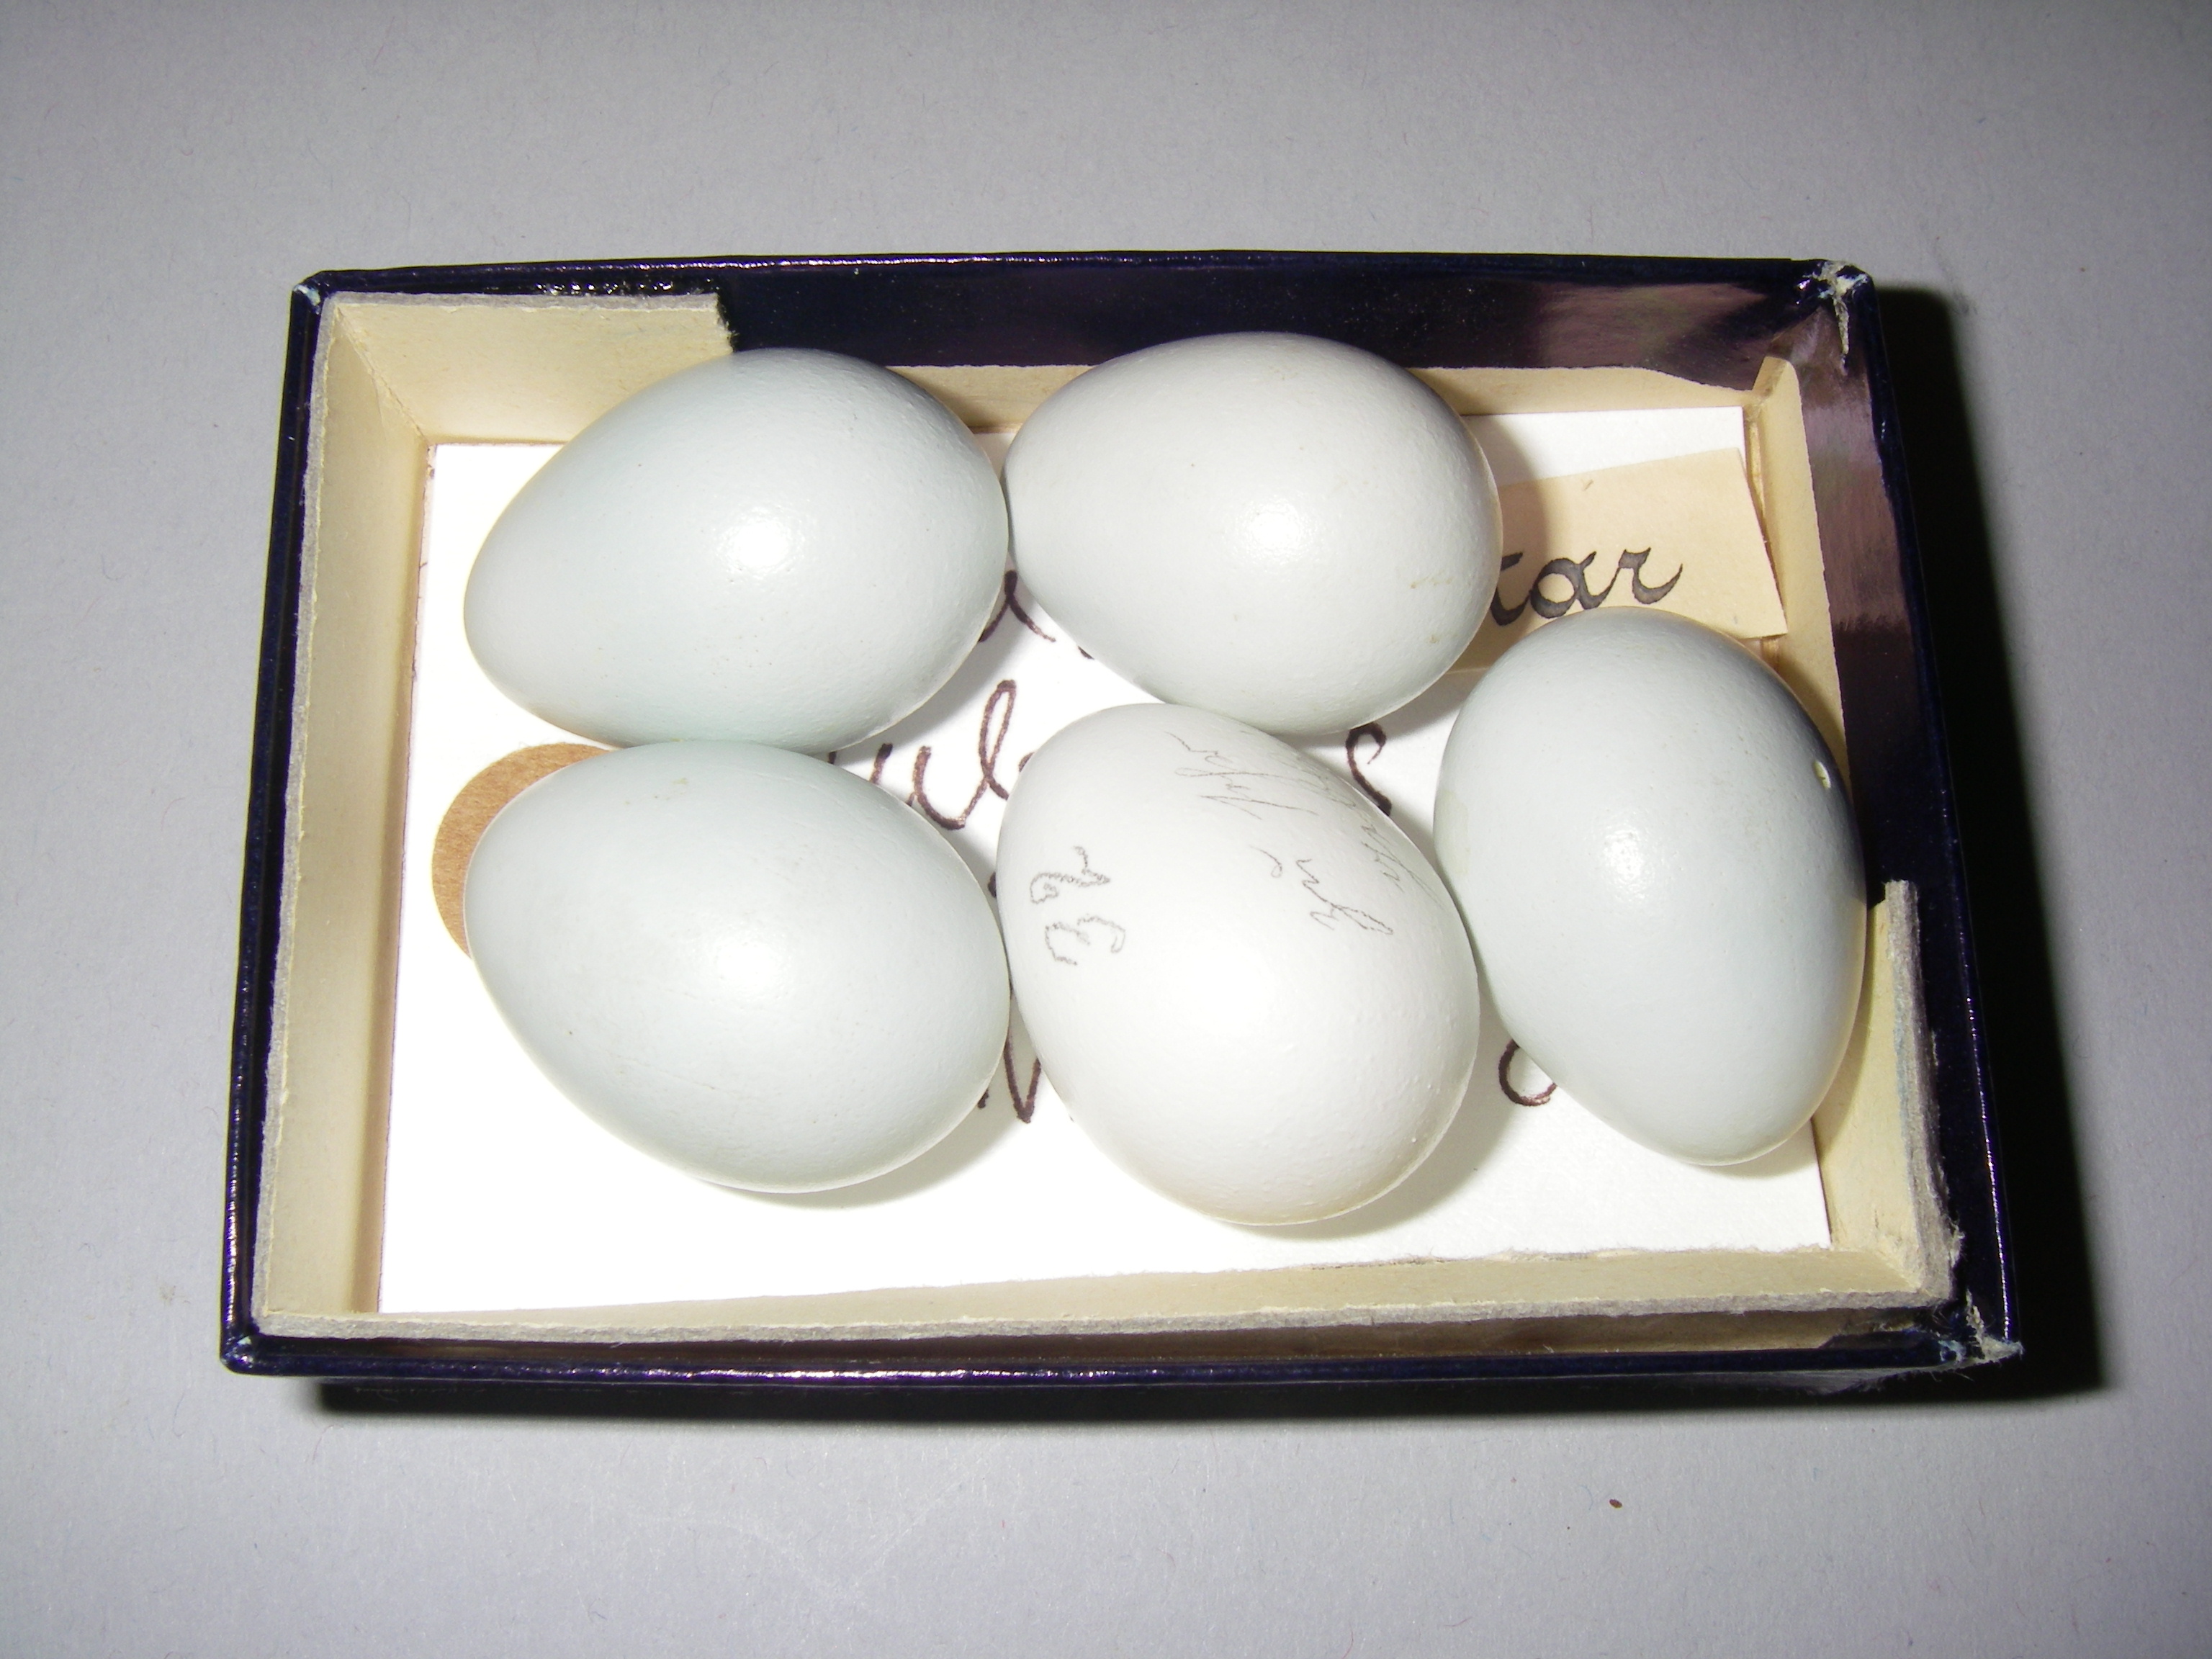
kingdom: Animalia
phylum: Chordata
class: Aves
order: Passeriformes
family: Sturnidae
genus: Sturnus
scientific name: Sturnus vulgaris
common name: Common starling
